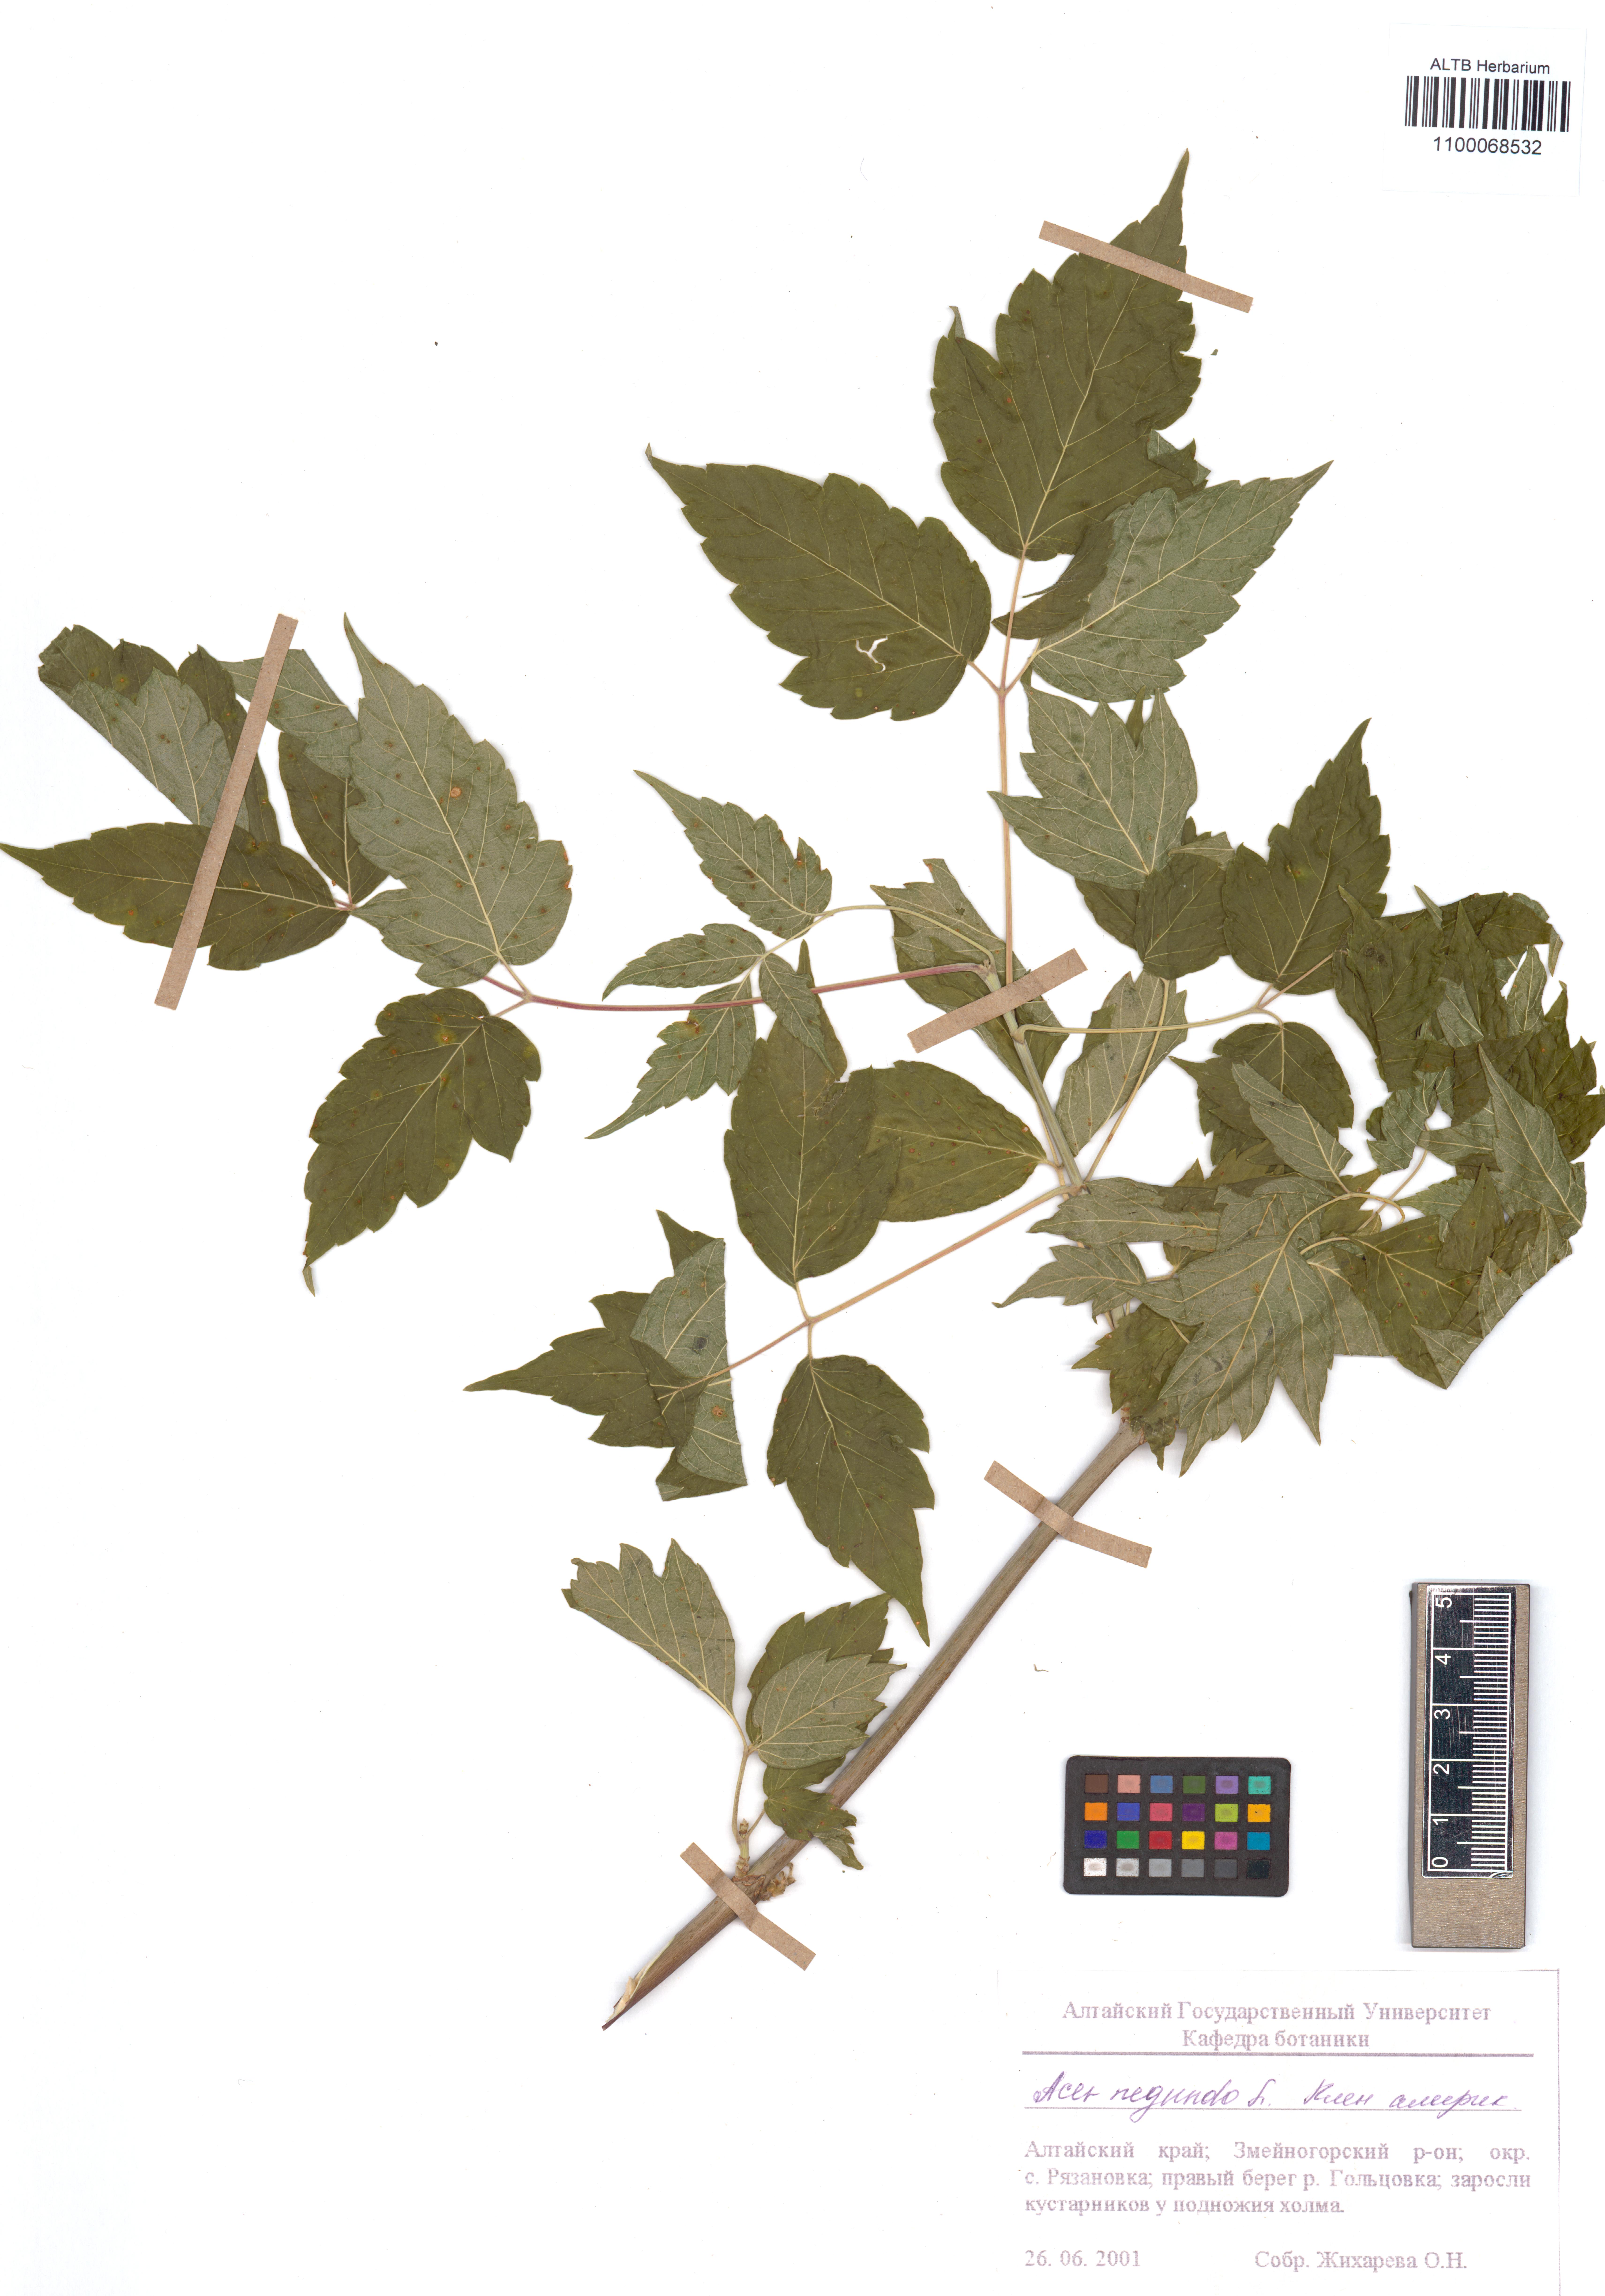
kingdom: Plantae
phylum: Tracheophyta
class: Magnoliopsida
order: Sapindales
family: Sapindaceae
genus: Acer
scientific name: Acer negundo
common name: Ashleaf maple
